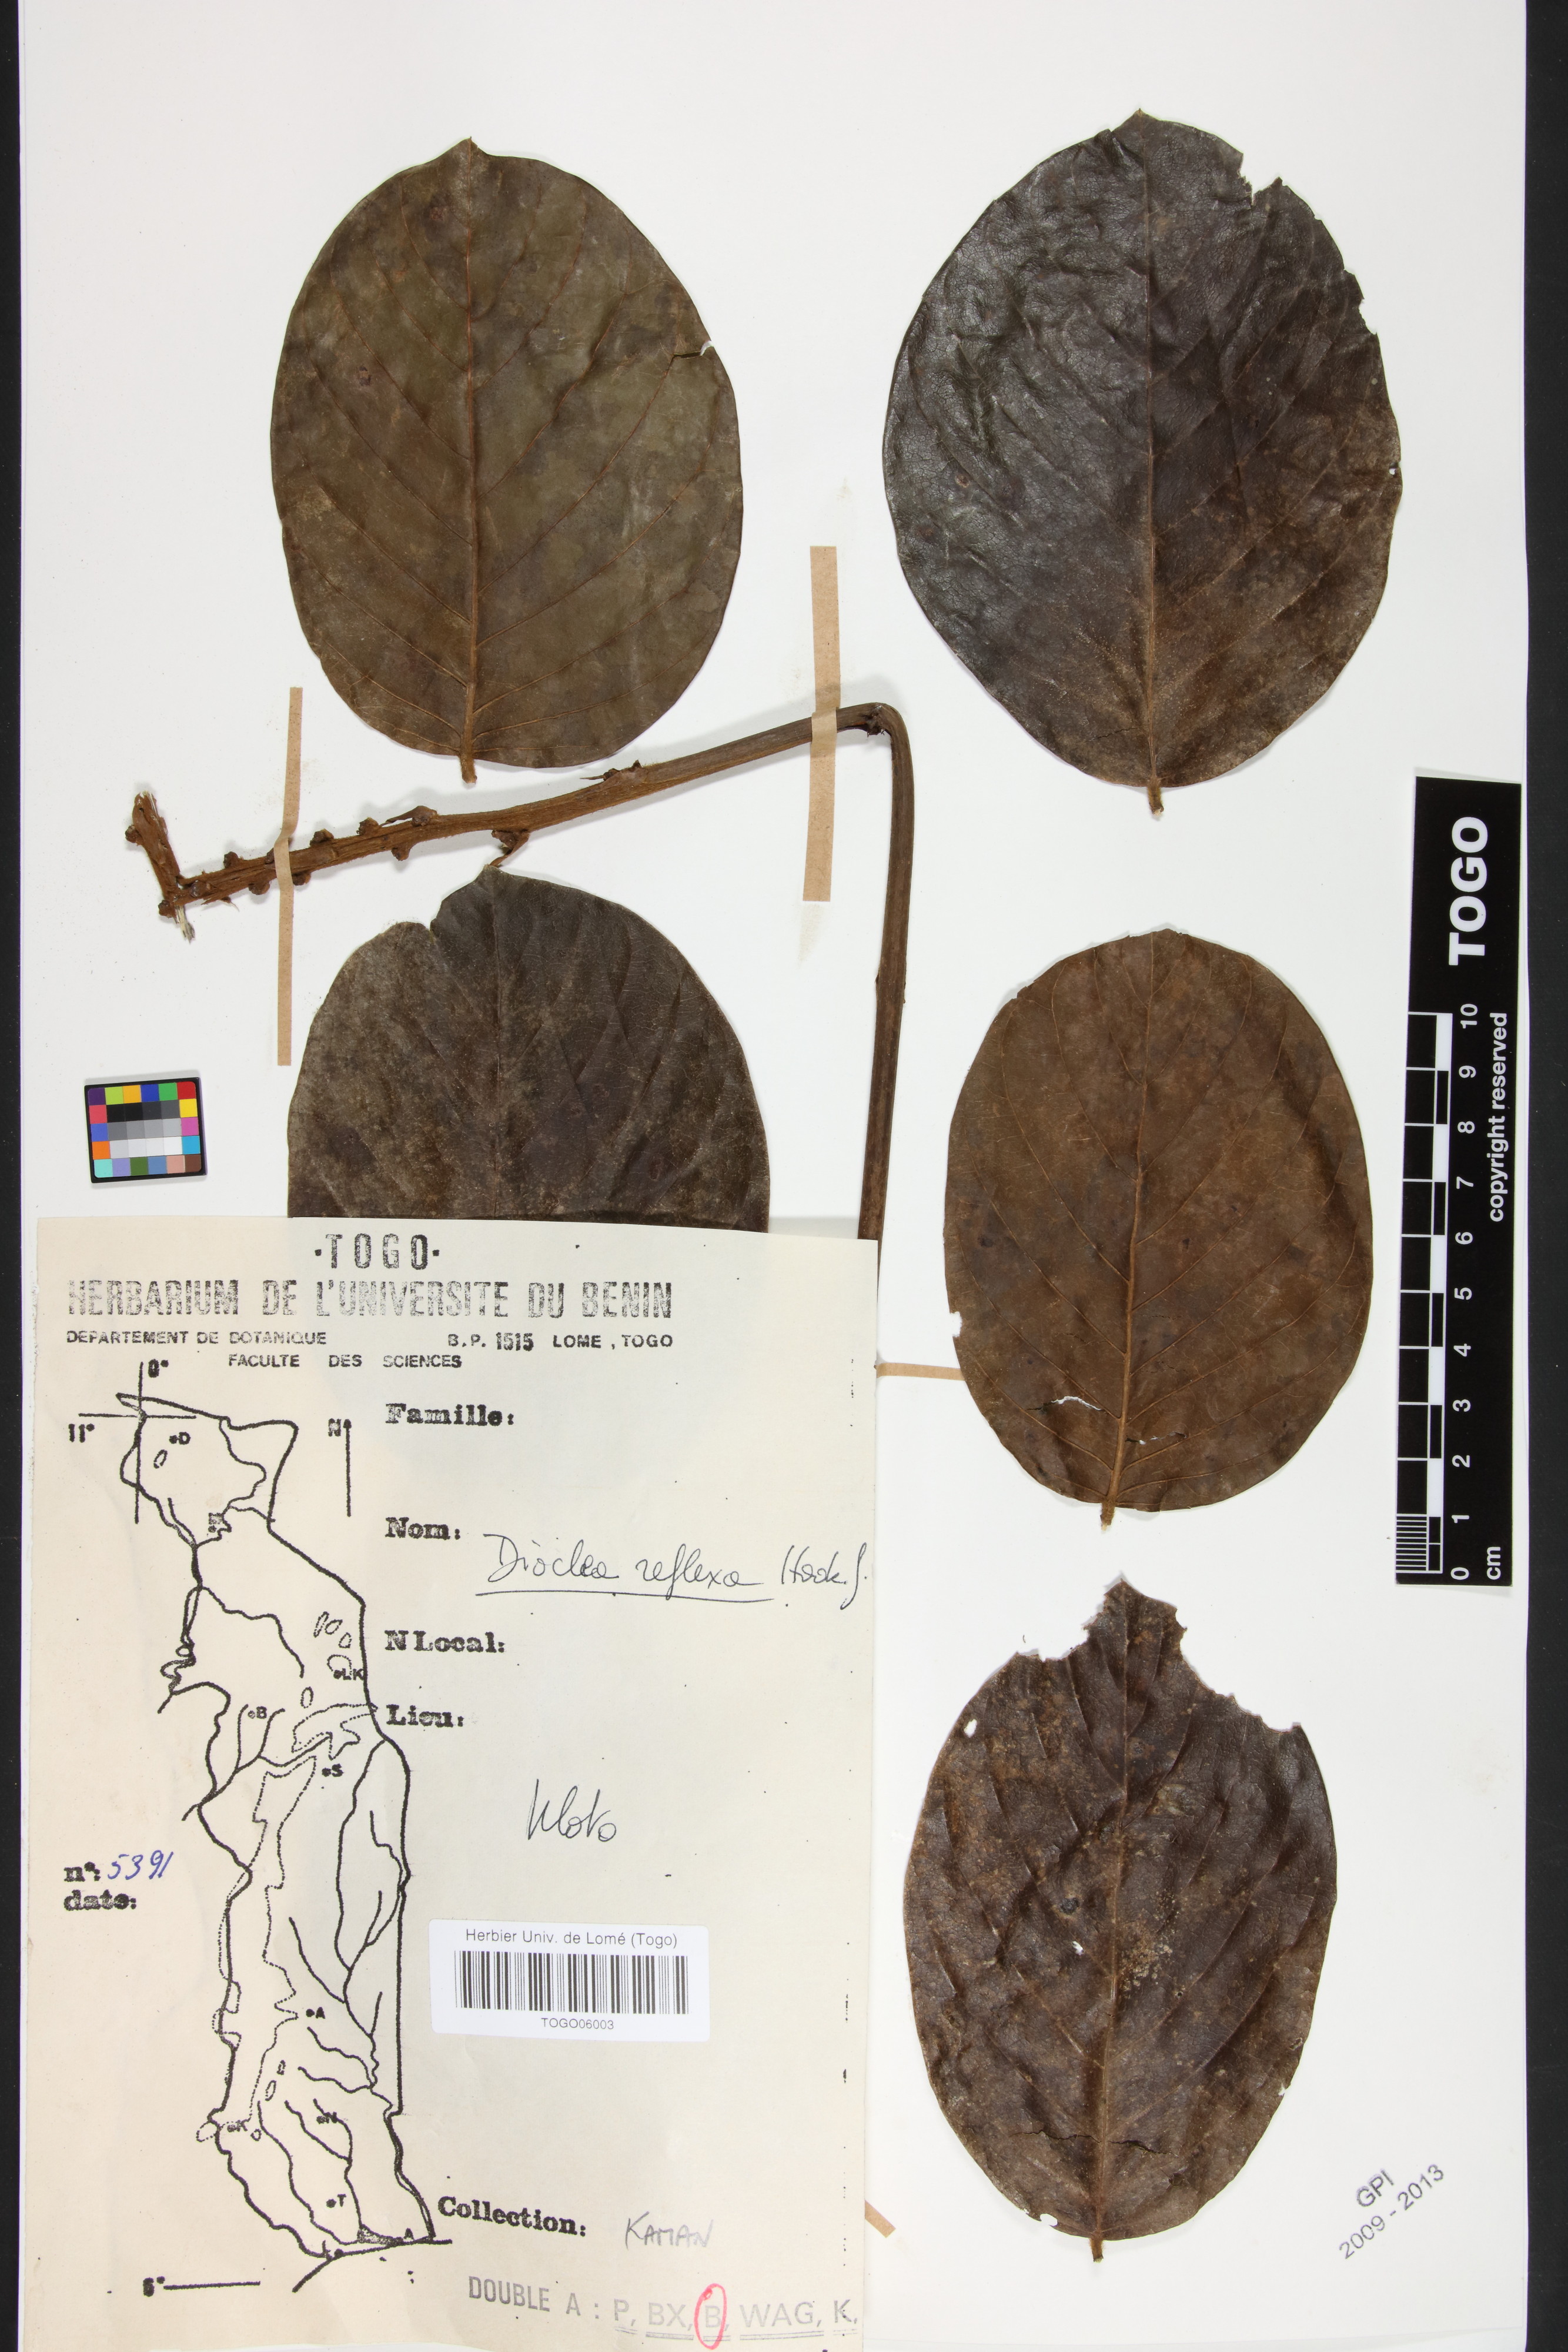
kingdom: Plantae
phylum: Tracheophyta
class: Magnoliopsida
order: Fabales
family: Fabaceae
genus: Macropsychanthus
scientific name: Macropsychanthus comosus
